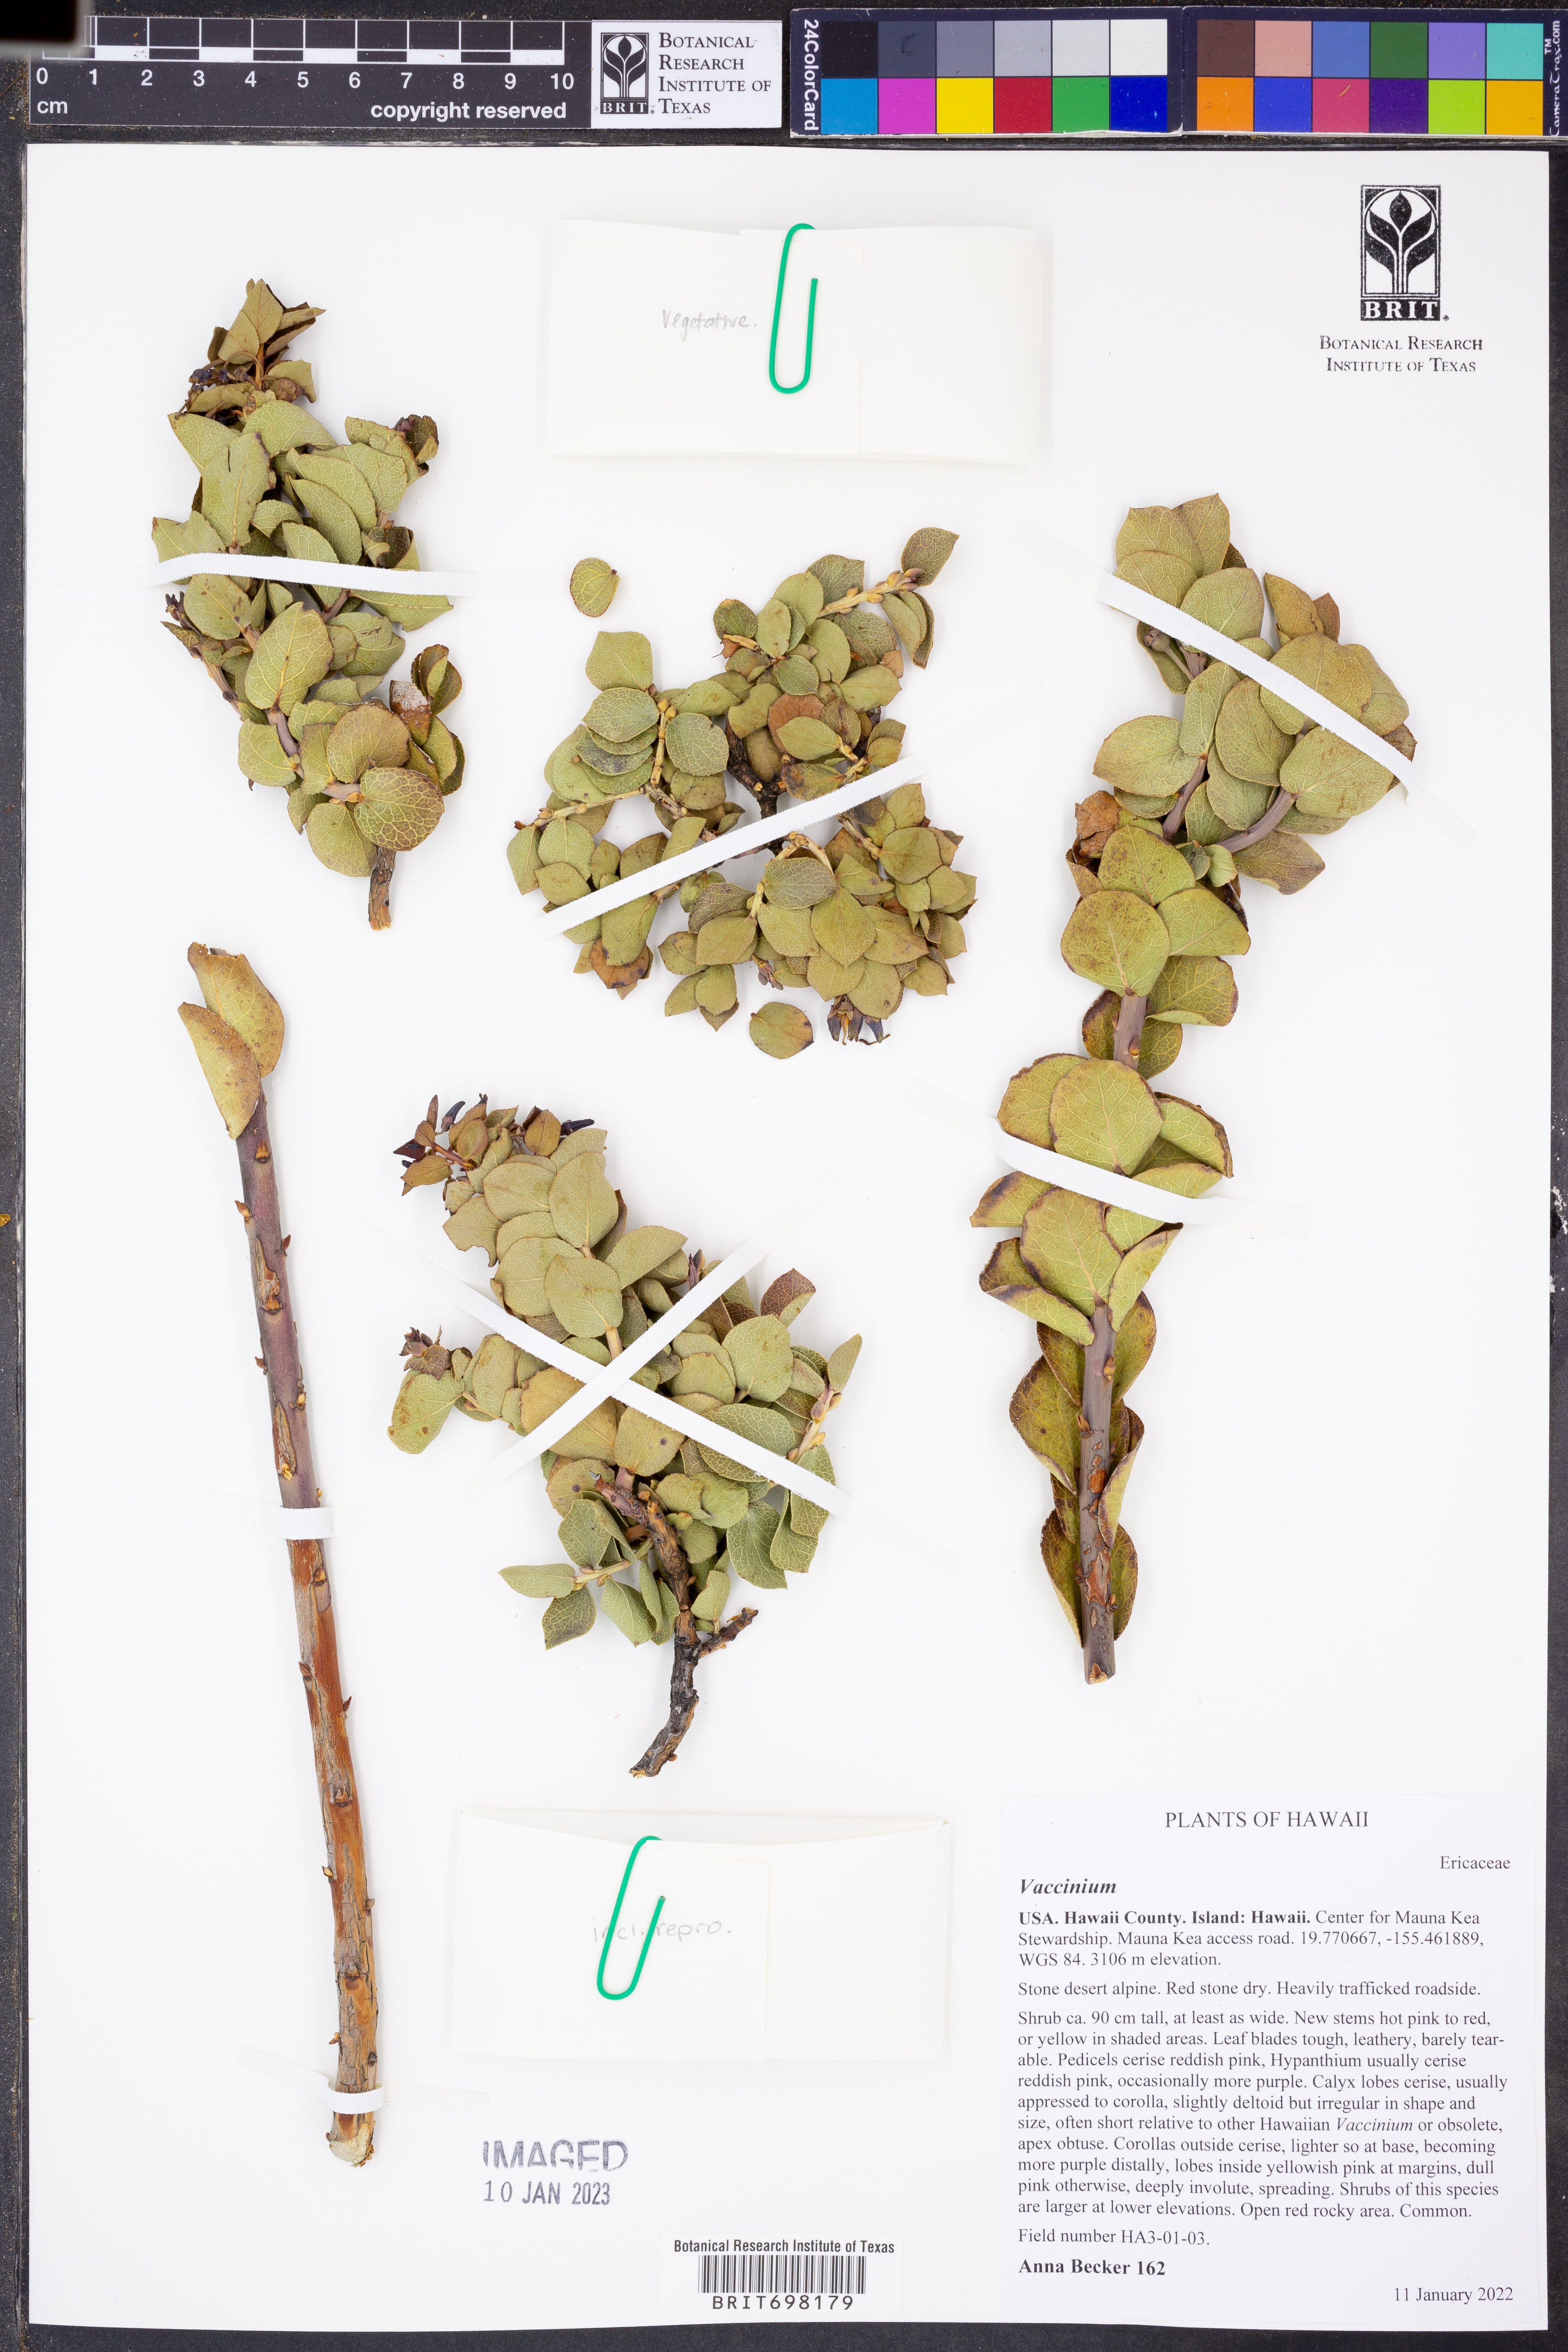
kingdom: Plantae
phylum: Tracheophyta
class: Magnoliopsida
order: Ericales
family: Ericaceae
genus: Vaccinium
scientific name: Vaccinium
